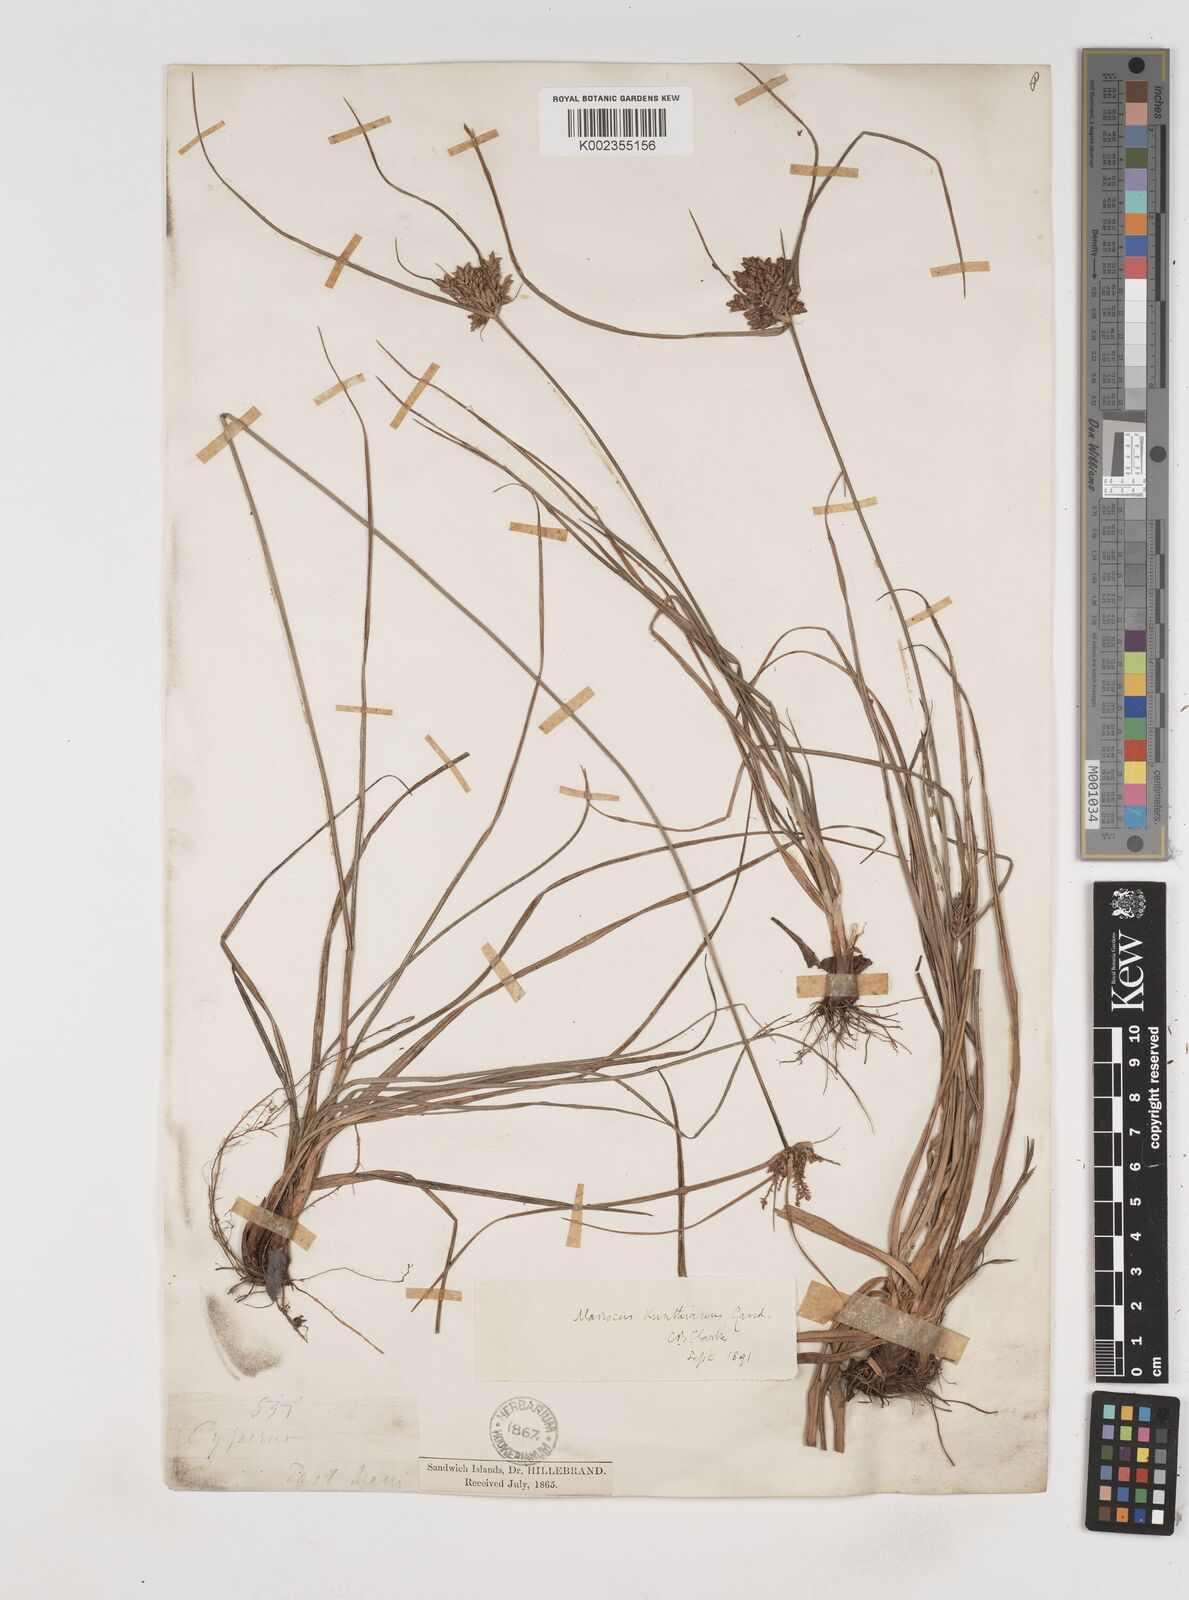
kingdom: Plantae
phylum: Tracheophyta
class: Liliopsida
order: Poales
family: Cyperaceae
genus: Cyperus
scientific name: Cyperus hillebrandii
